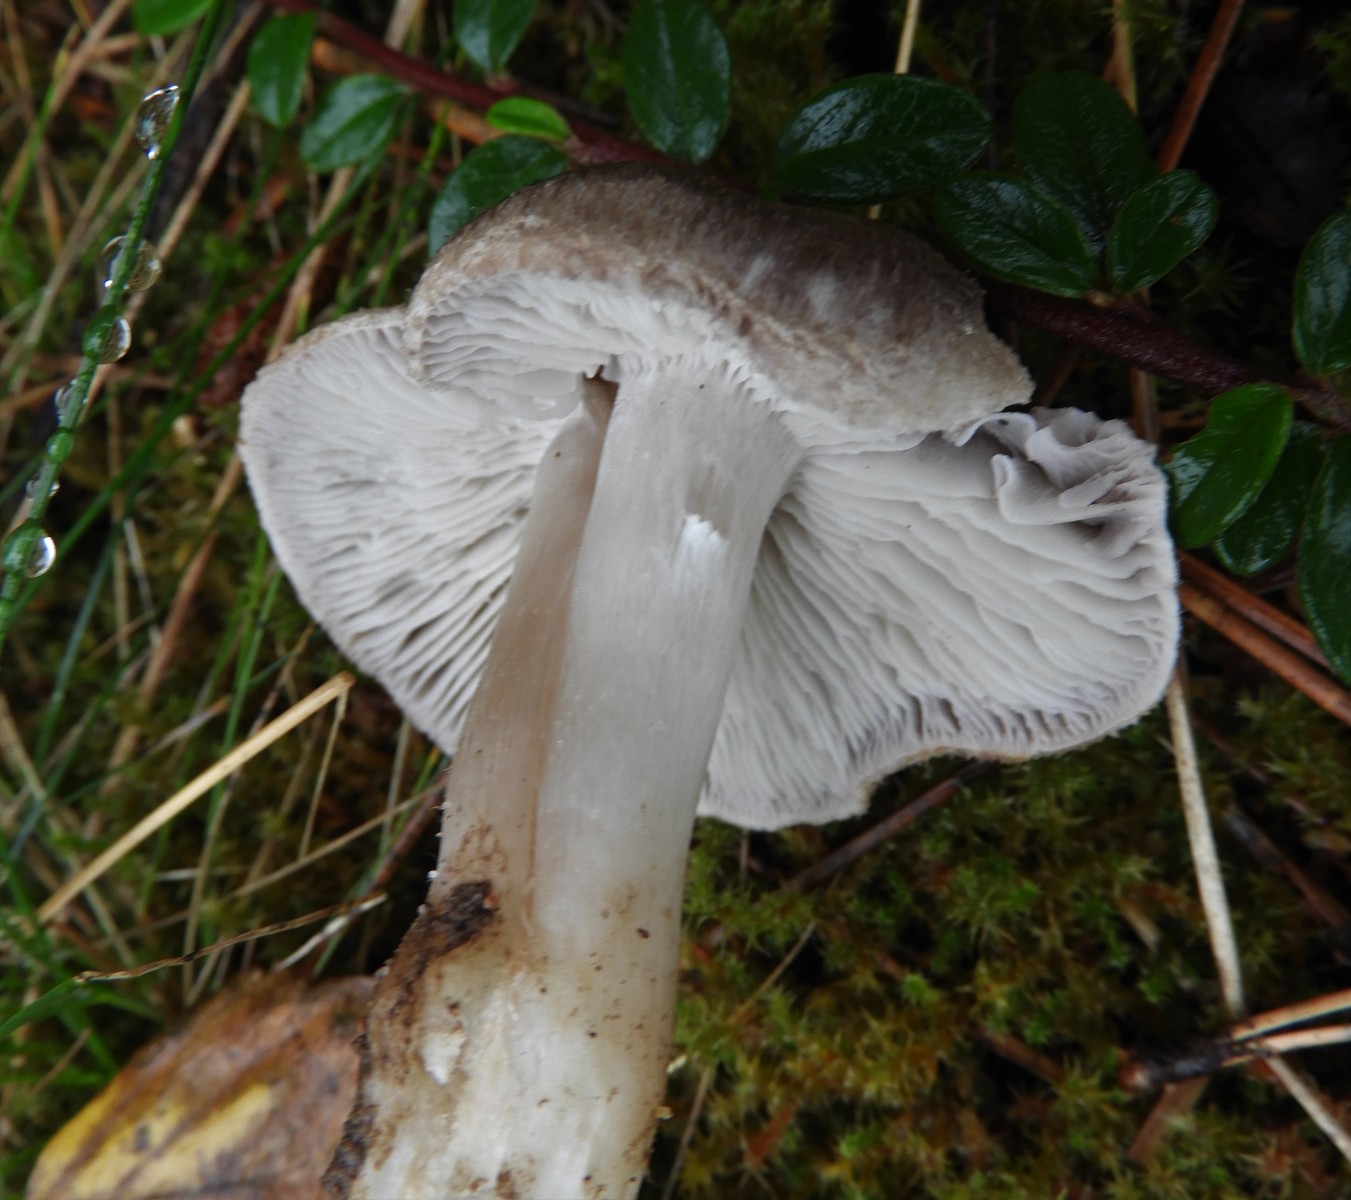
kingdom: Fungi
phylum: Basidiomycota
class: Agaricomycetes
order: Agaricales
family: Tricholomataceae
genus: Tricholoma
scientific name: Tricholoma terreum
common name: jordfarvet ridderhat
